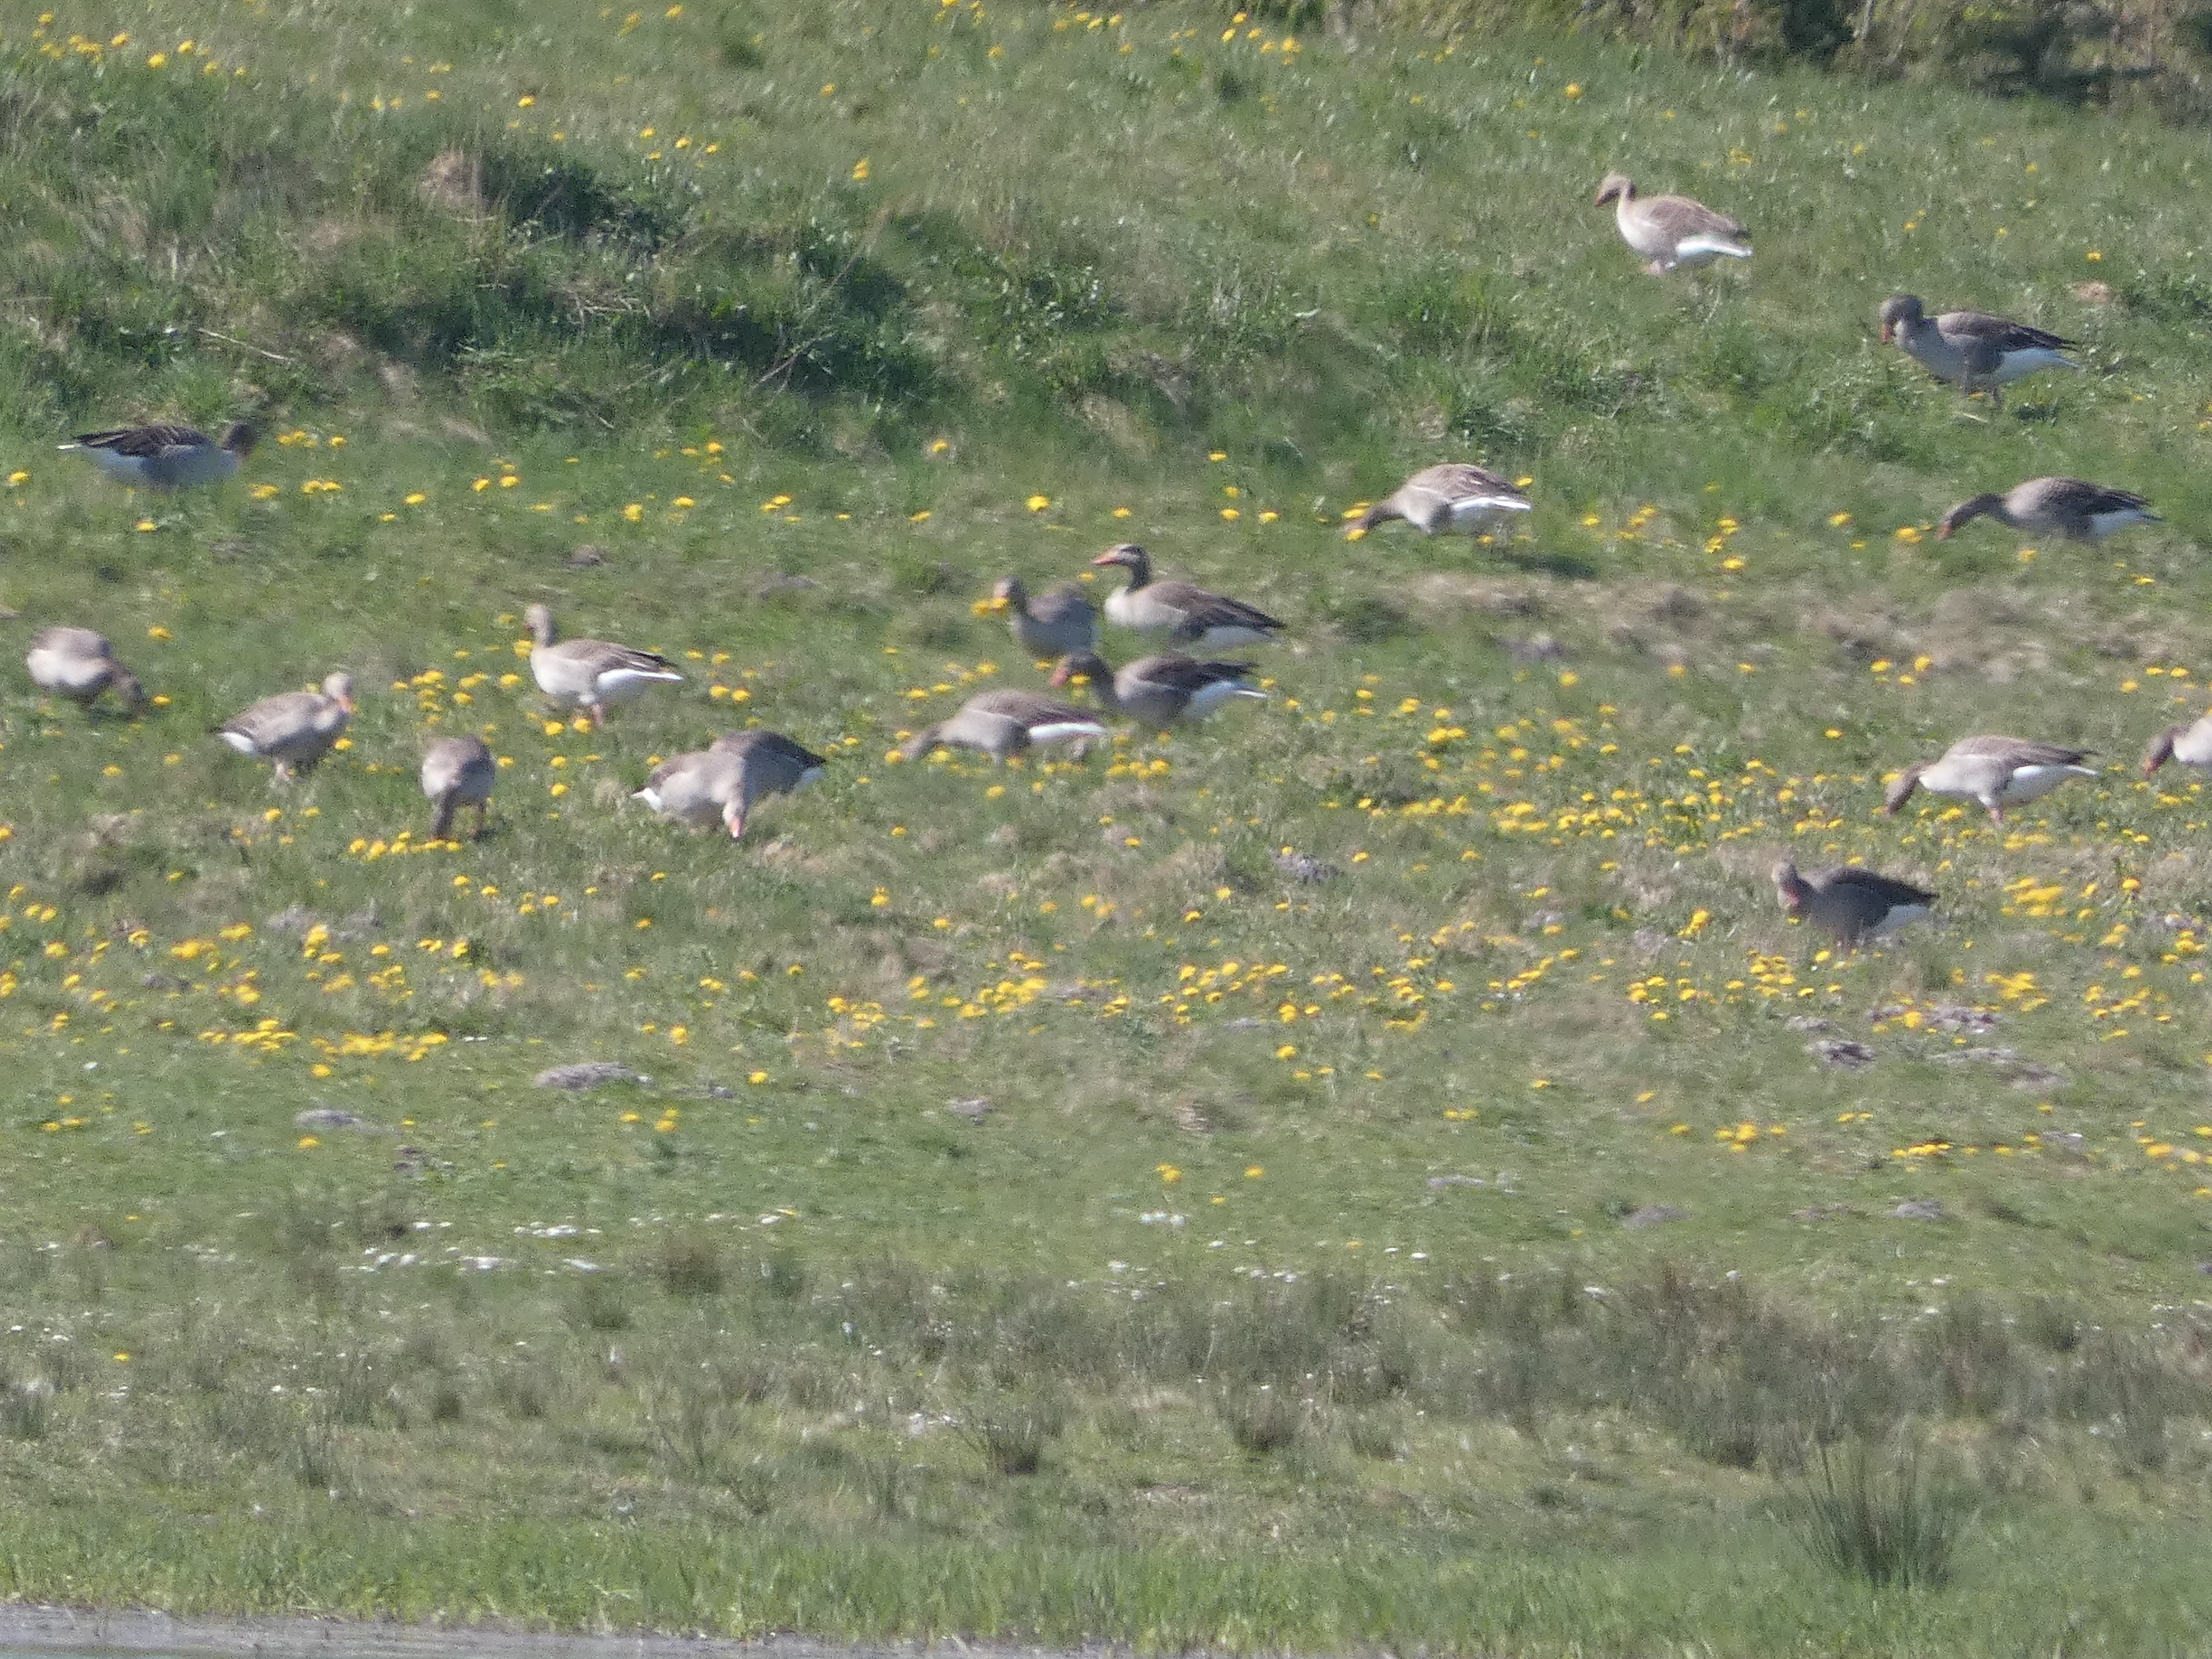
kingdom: Animalia
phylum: Chordata
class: Aves
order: Anseriformes
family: Anatidae
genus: Anser
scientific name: Anser anser
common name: Grågås
